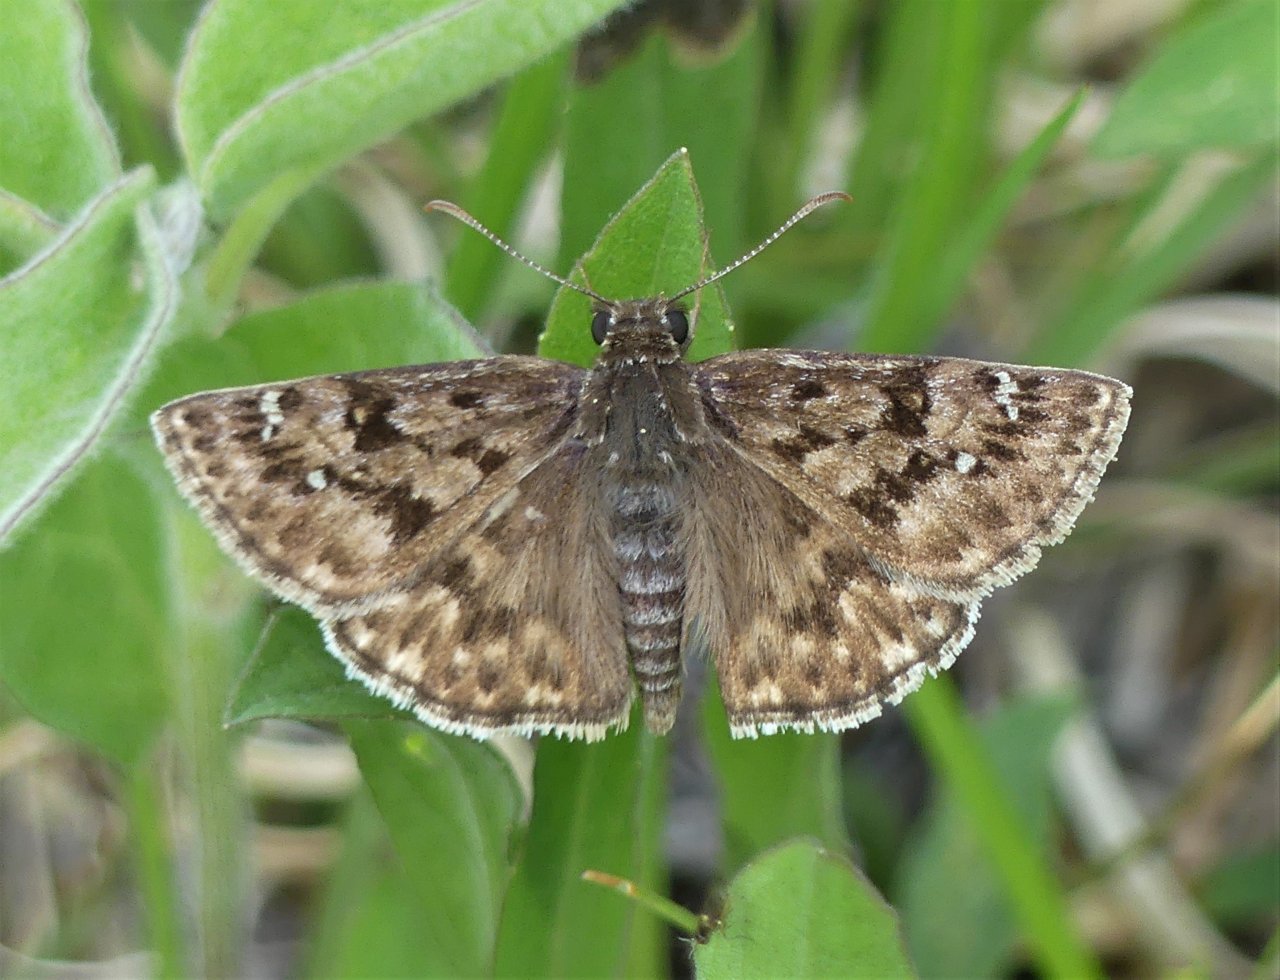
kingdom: Animalia
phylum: Arthropoda
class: Insecta
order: Lepidoptera
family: Hesperiidae
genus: Erynnis
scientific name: Erynnis martialis
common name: Mottled Duskywing
